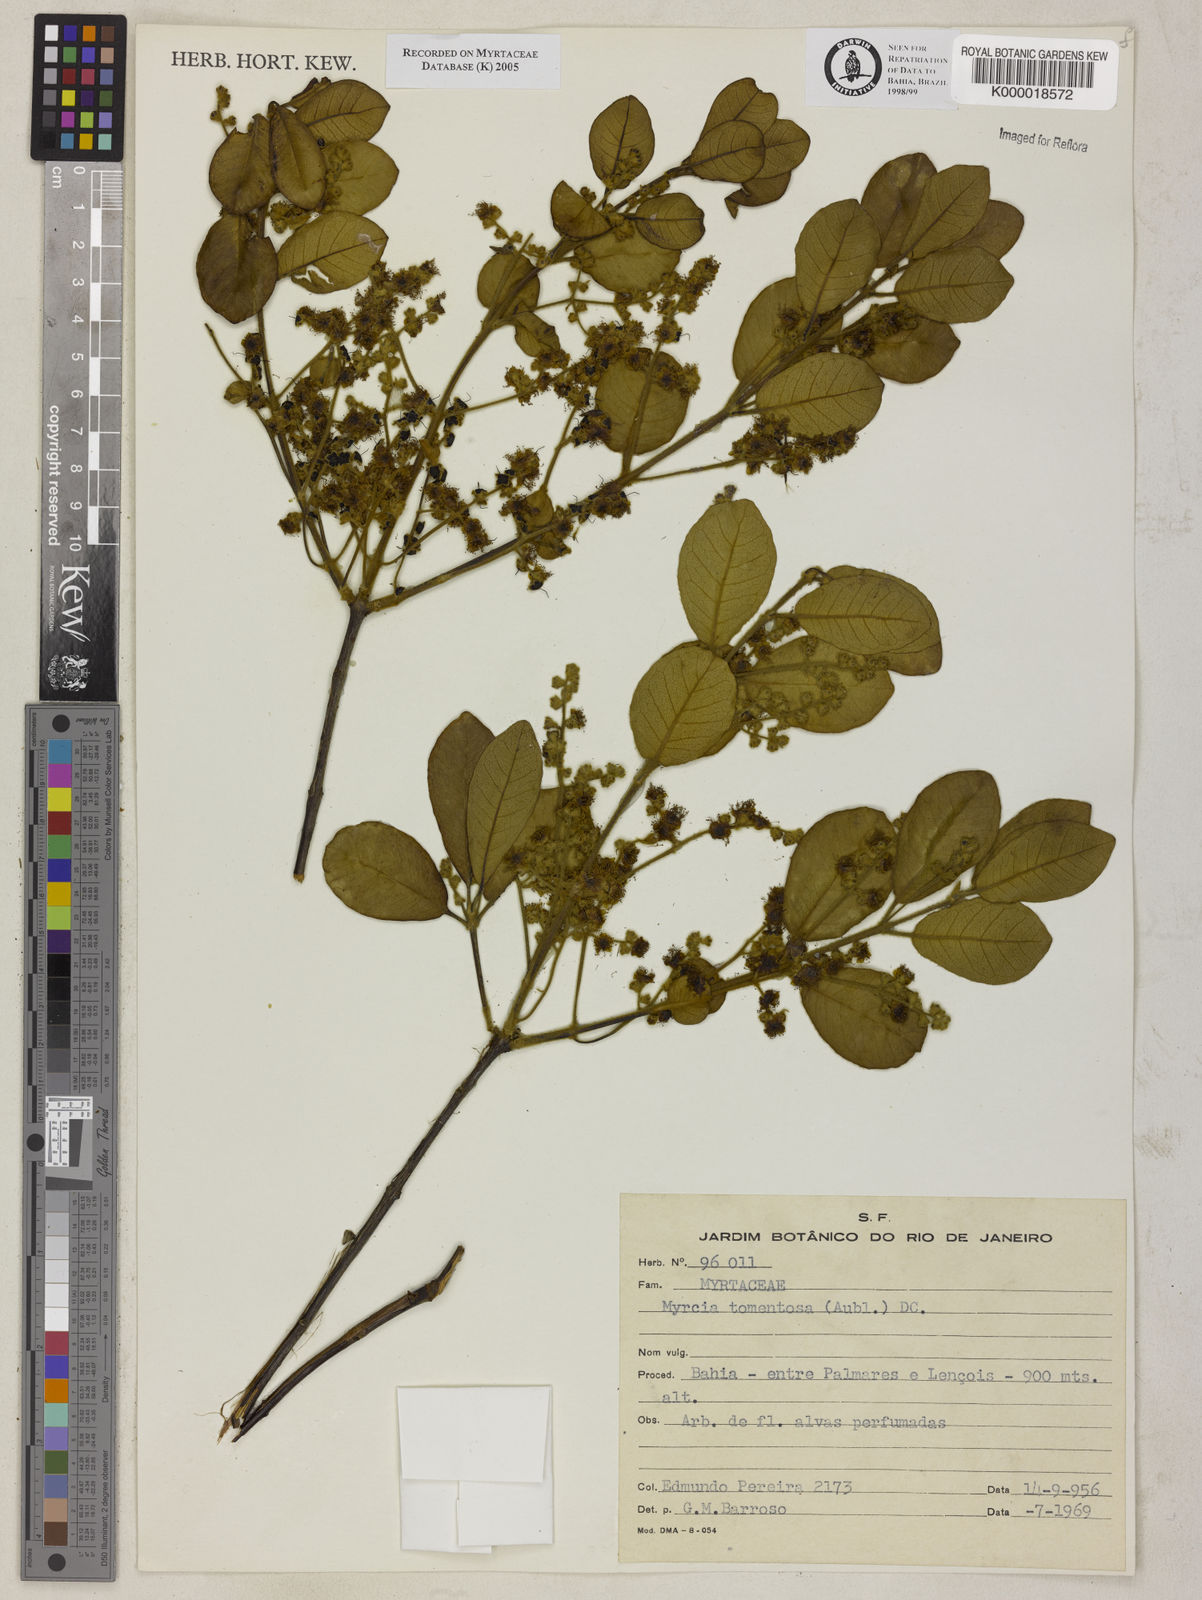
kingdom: Plantae
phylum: Tracheophyta
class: Magnoliopsida
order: Myrtales
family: Myrtaceae
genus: Myrcia
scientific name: Myrcia tomentosa
